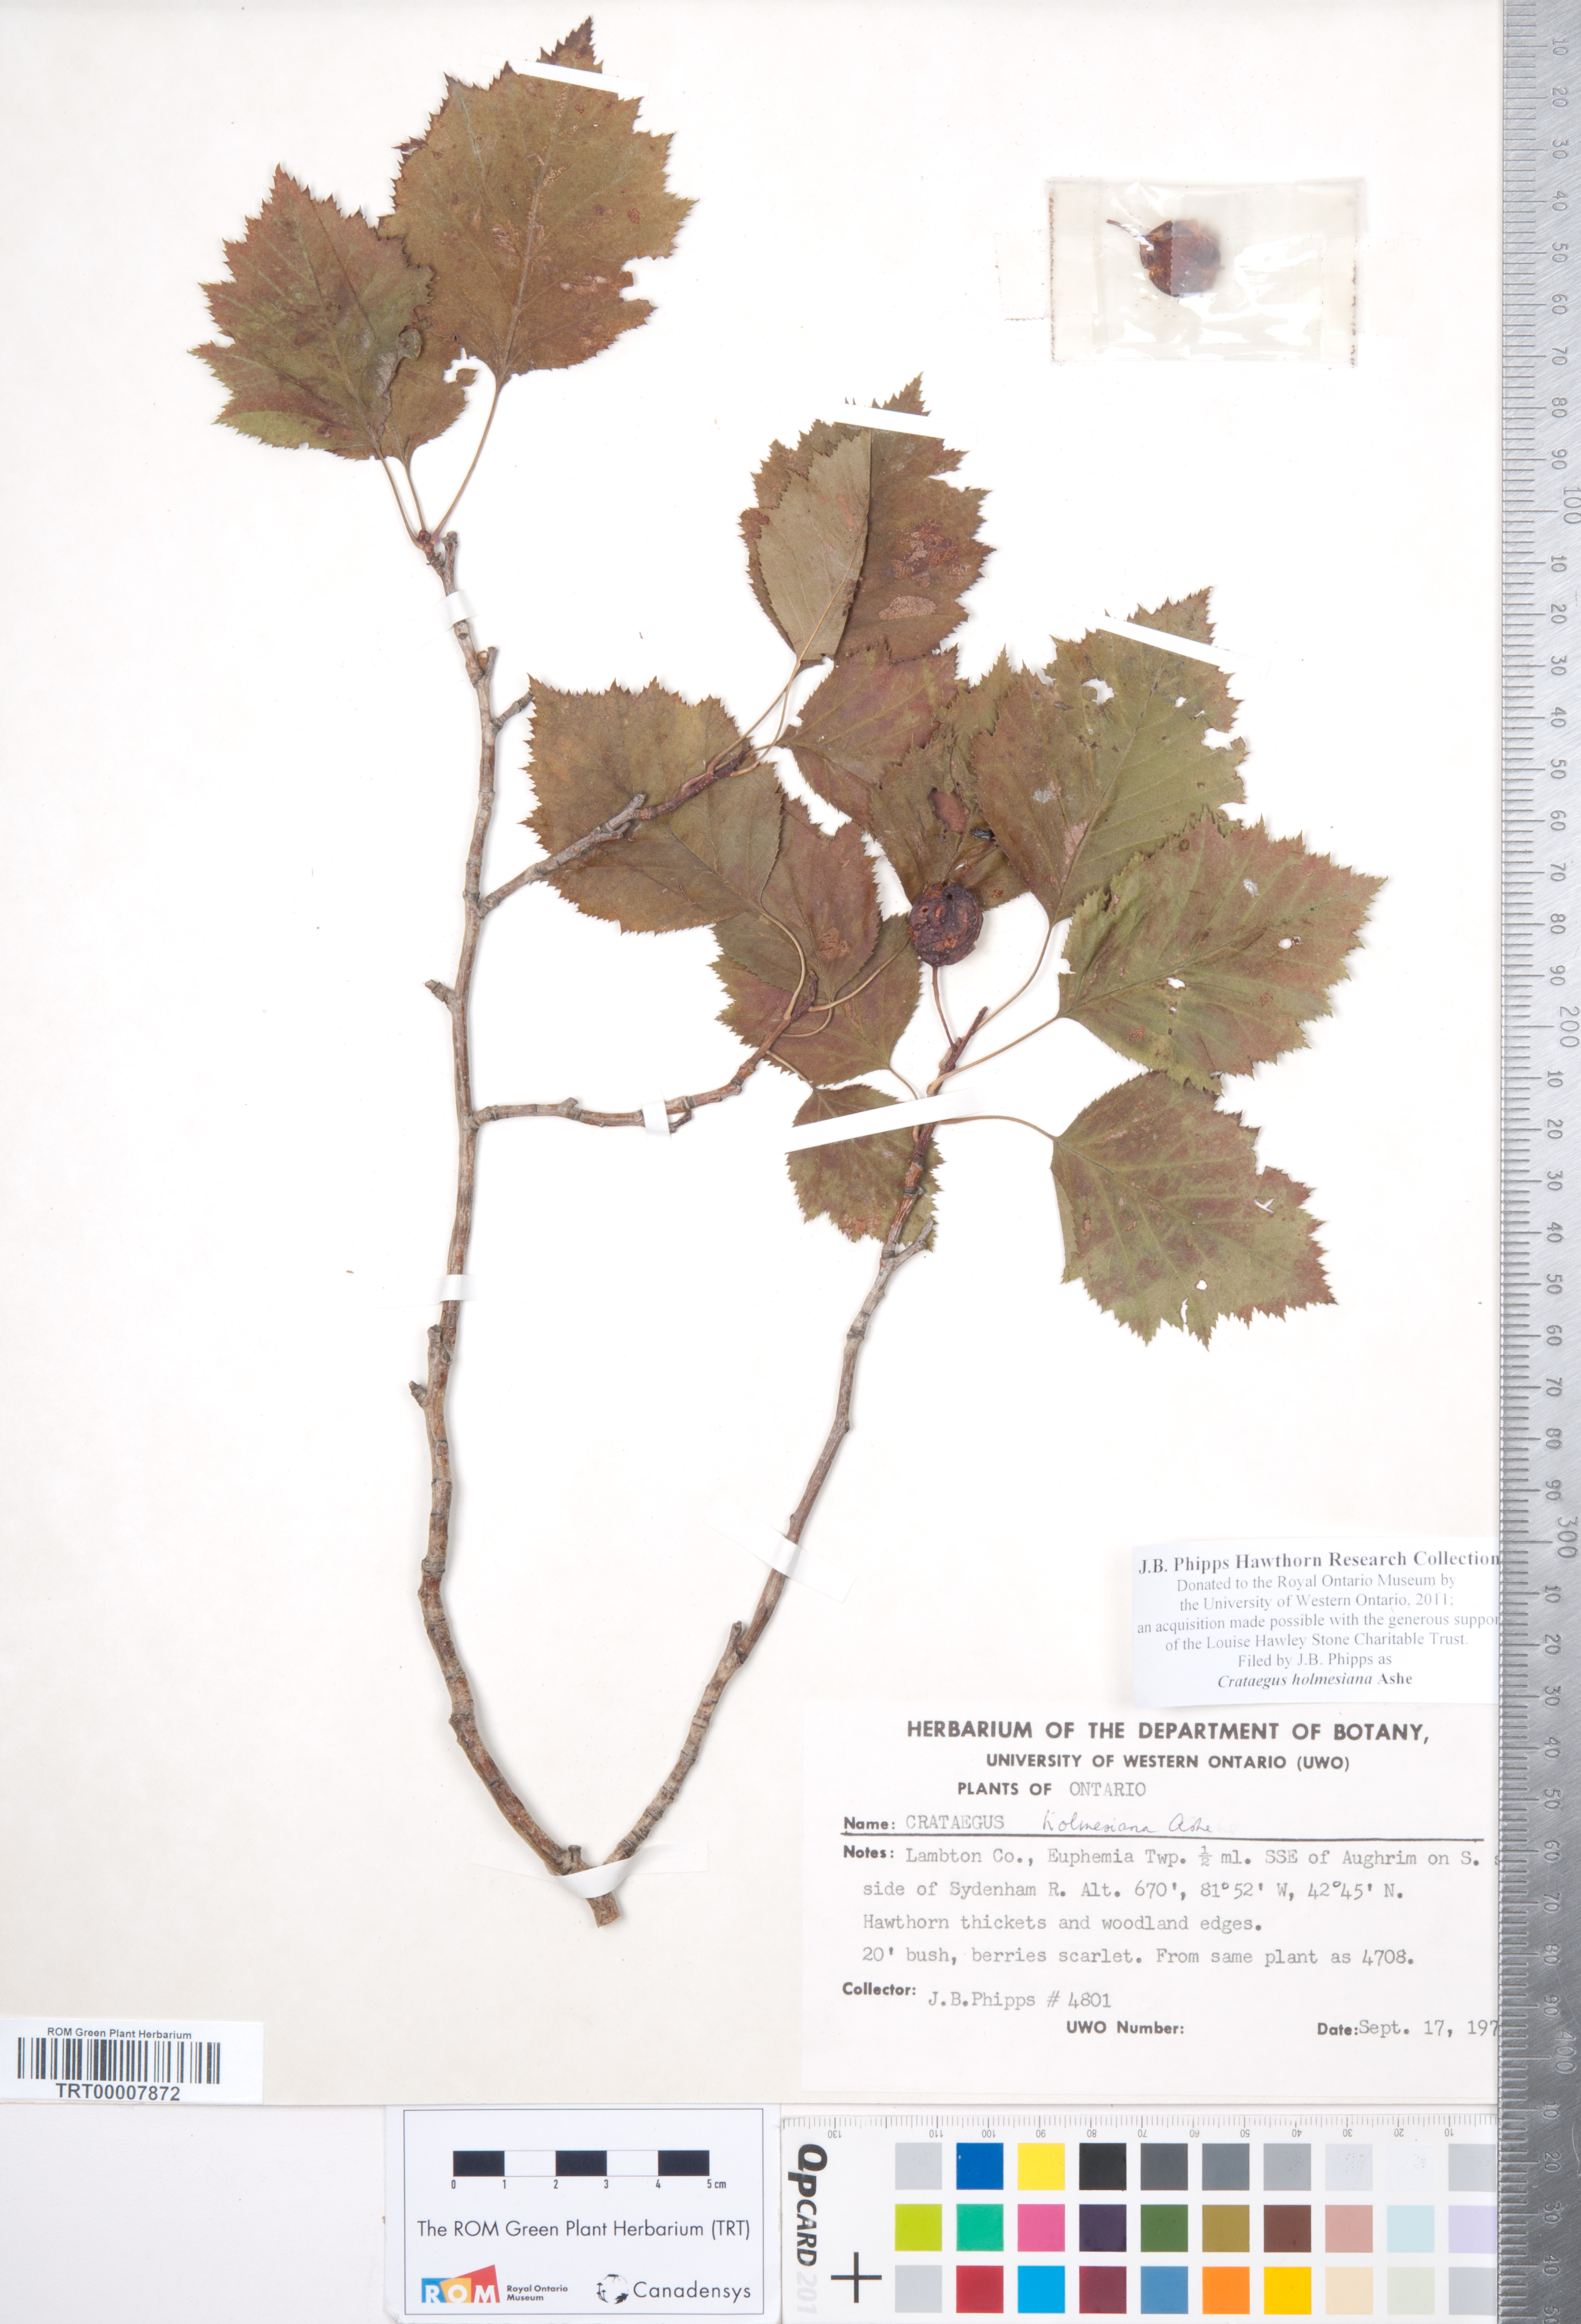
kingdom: Plantae
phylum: Tracheophyta
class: Magnoliopsida
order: Rosales
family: Rosaceae
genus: Crataegus
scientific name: Crataegus holmesiana
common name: Holmes' hawthorn
